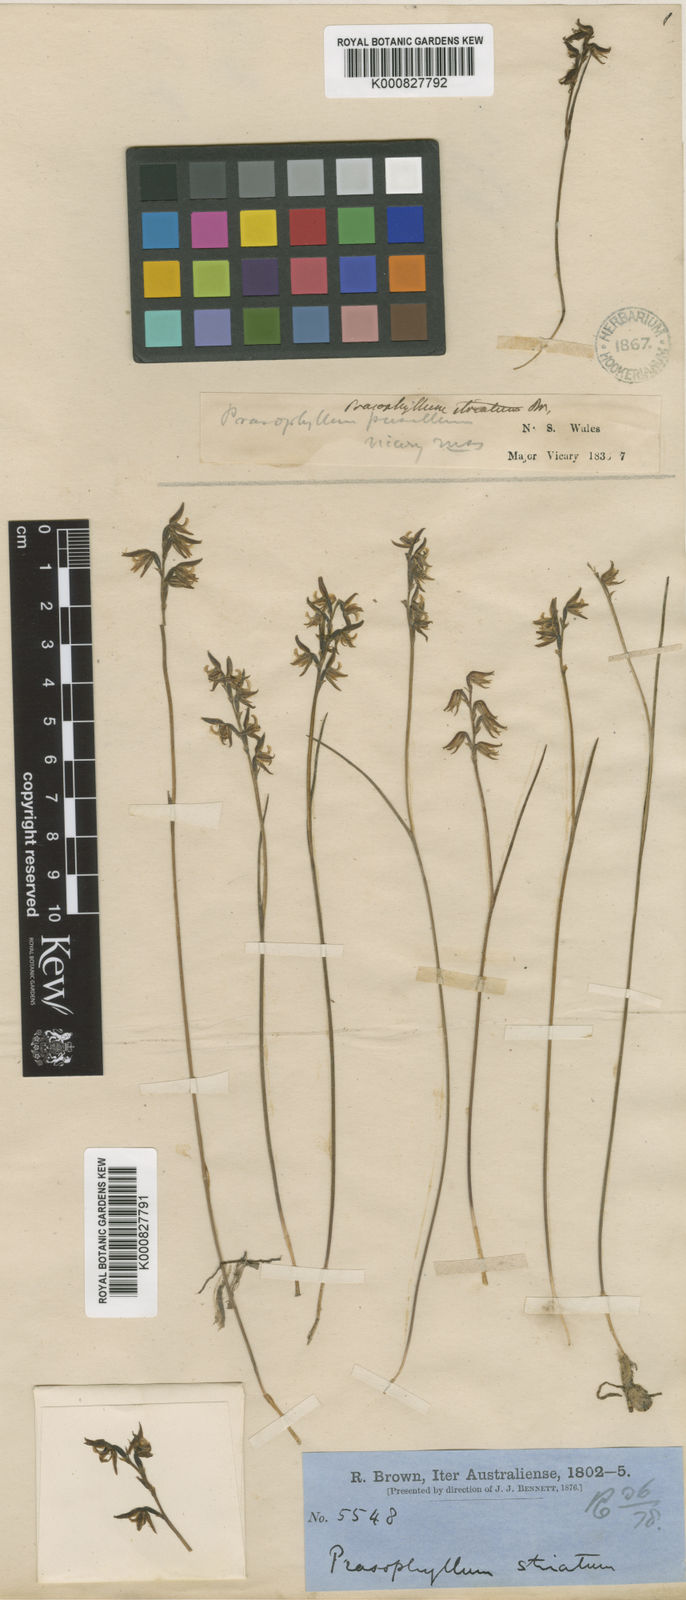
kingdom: Plantae
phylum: Tracheophyta
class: Liliopsida
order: Asparagales
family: Orchidaceae
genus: Prasophyllum
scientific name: Prasophyllum striatum
